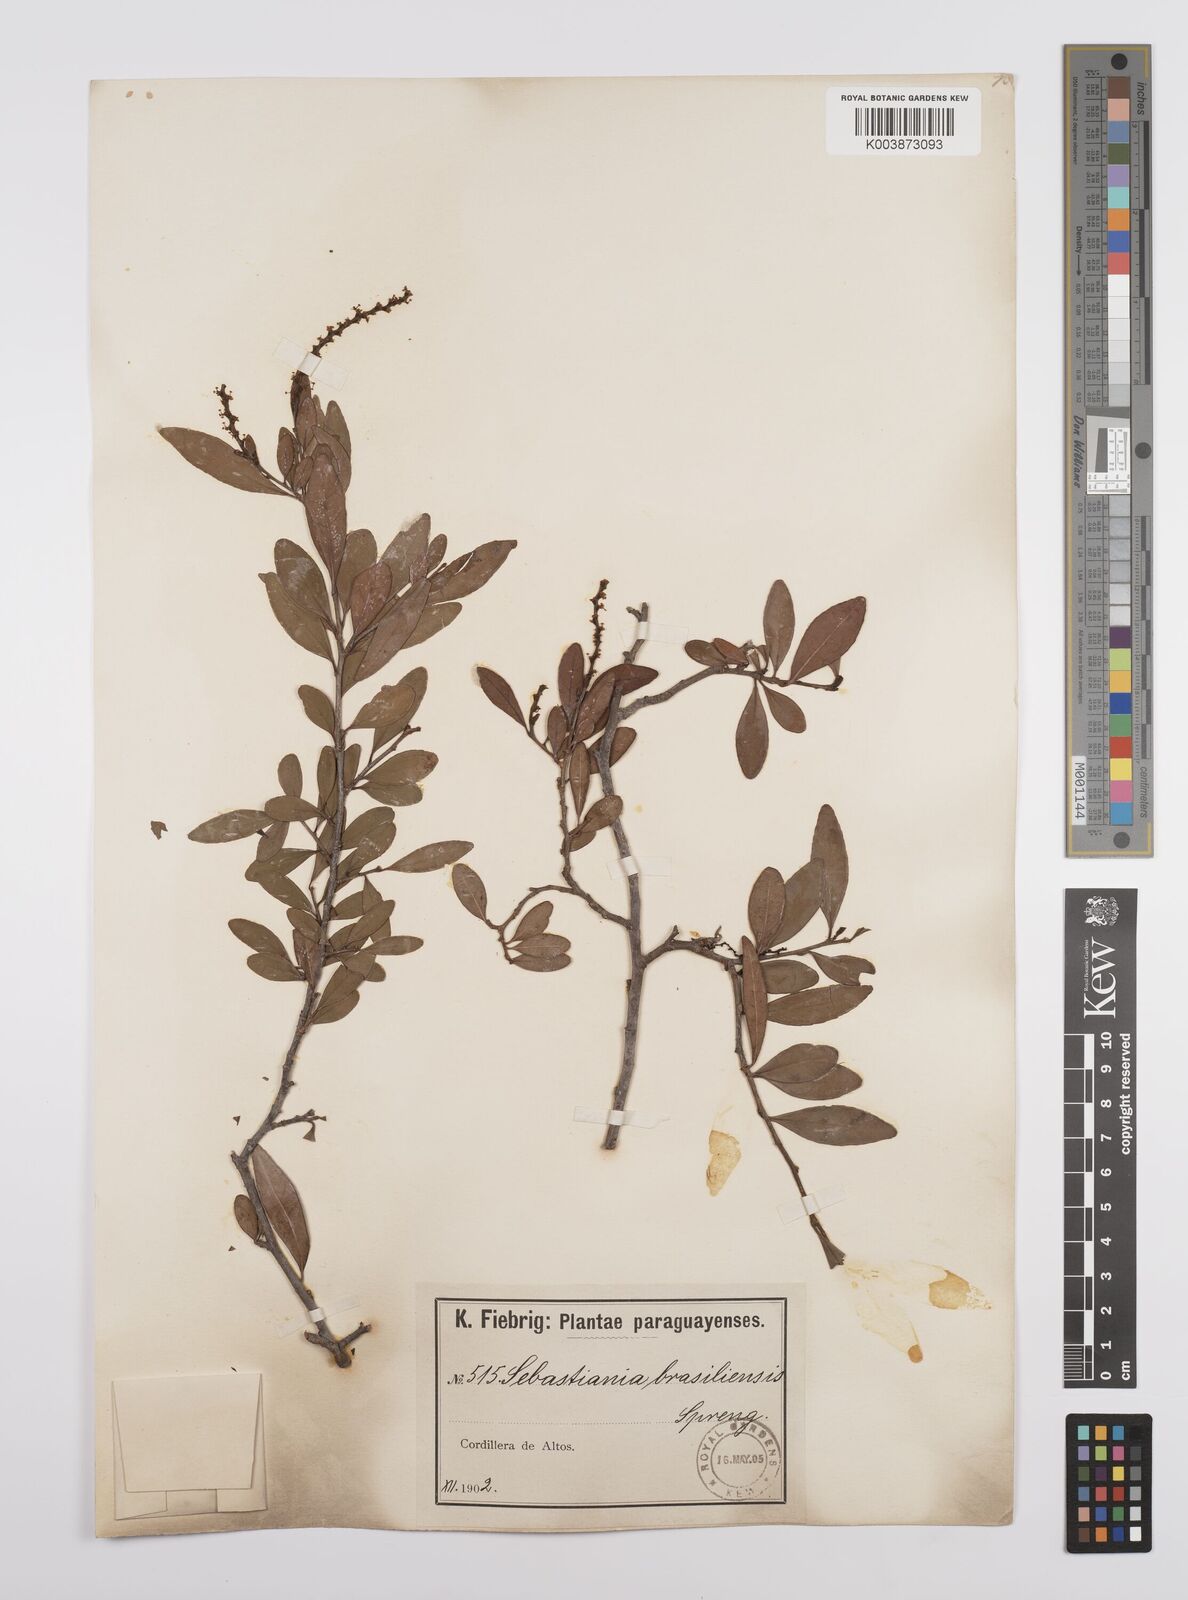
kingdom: Plantae
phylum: Tracheophyta
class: Magnoliopsida
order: Malpighiales
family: Euphorbiaceae
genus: Sebastiania
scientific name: Sebastiania ramosissima
